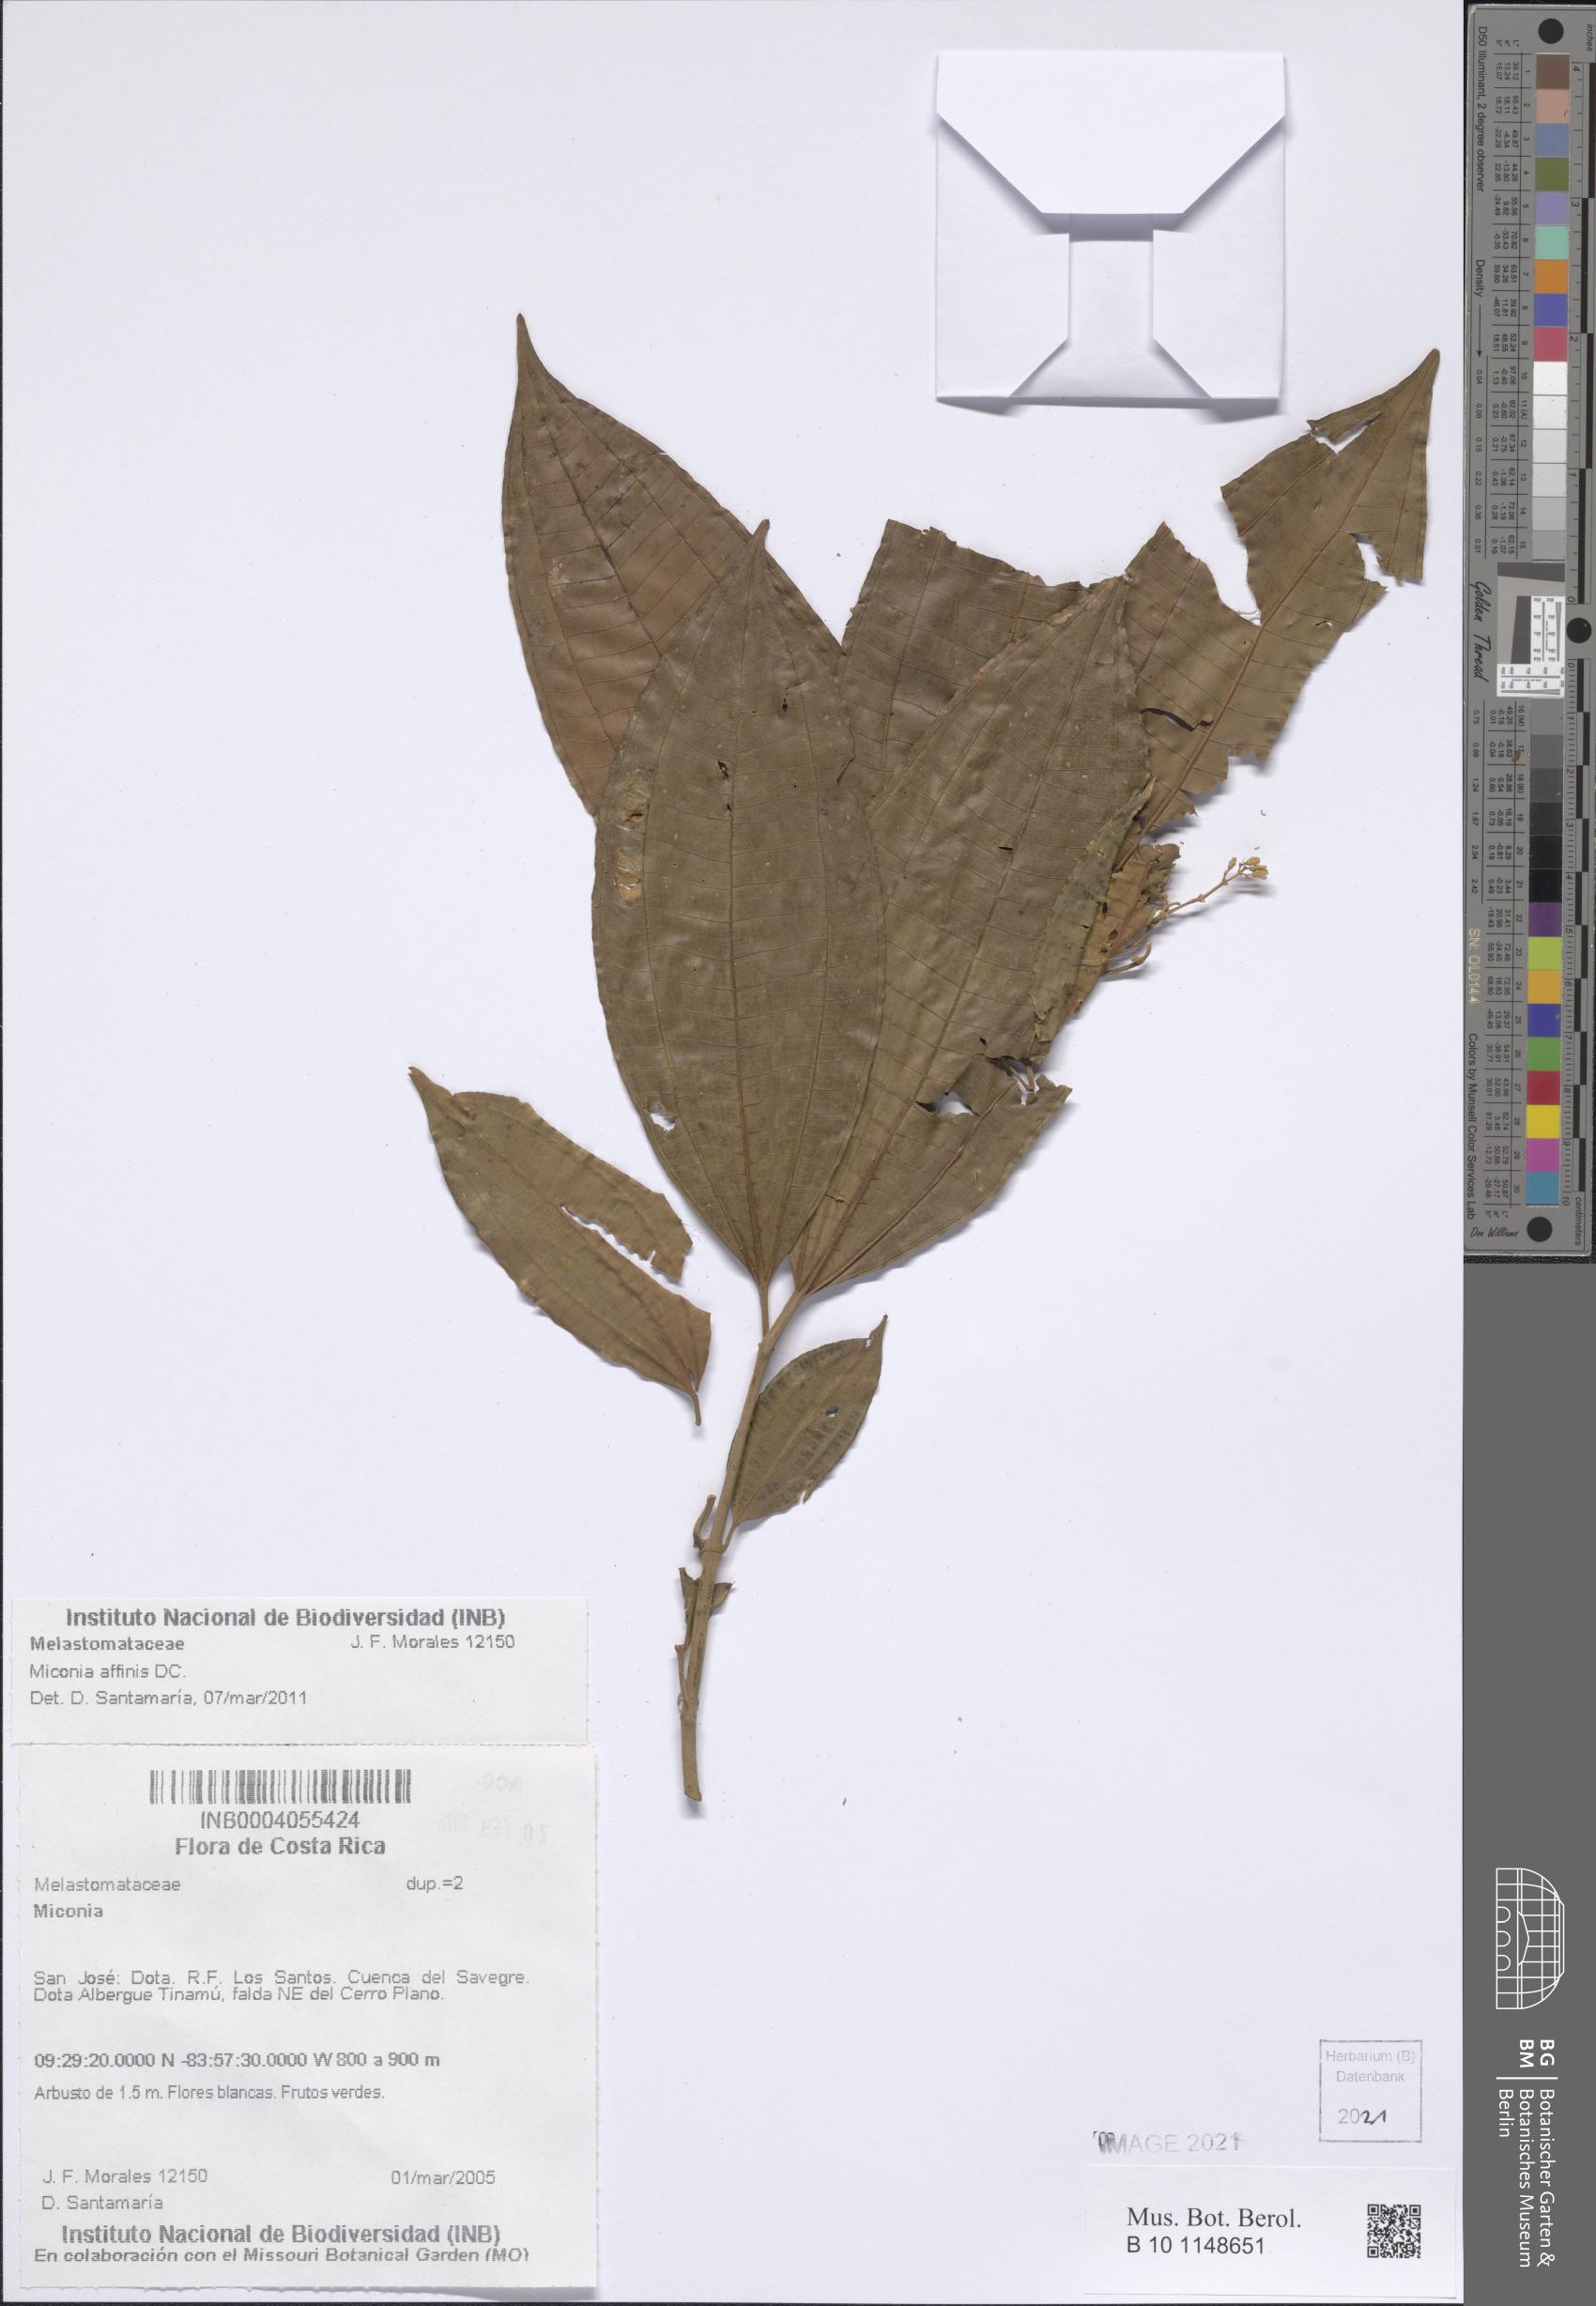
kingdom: Plantae
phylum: Tracheophyta
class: Magnoliopsida
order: Myrtales
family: Melastomataceae
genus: Miconia
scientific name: Miconia affinis
